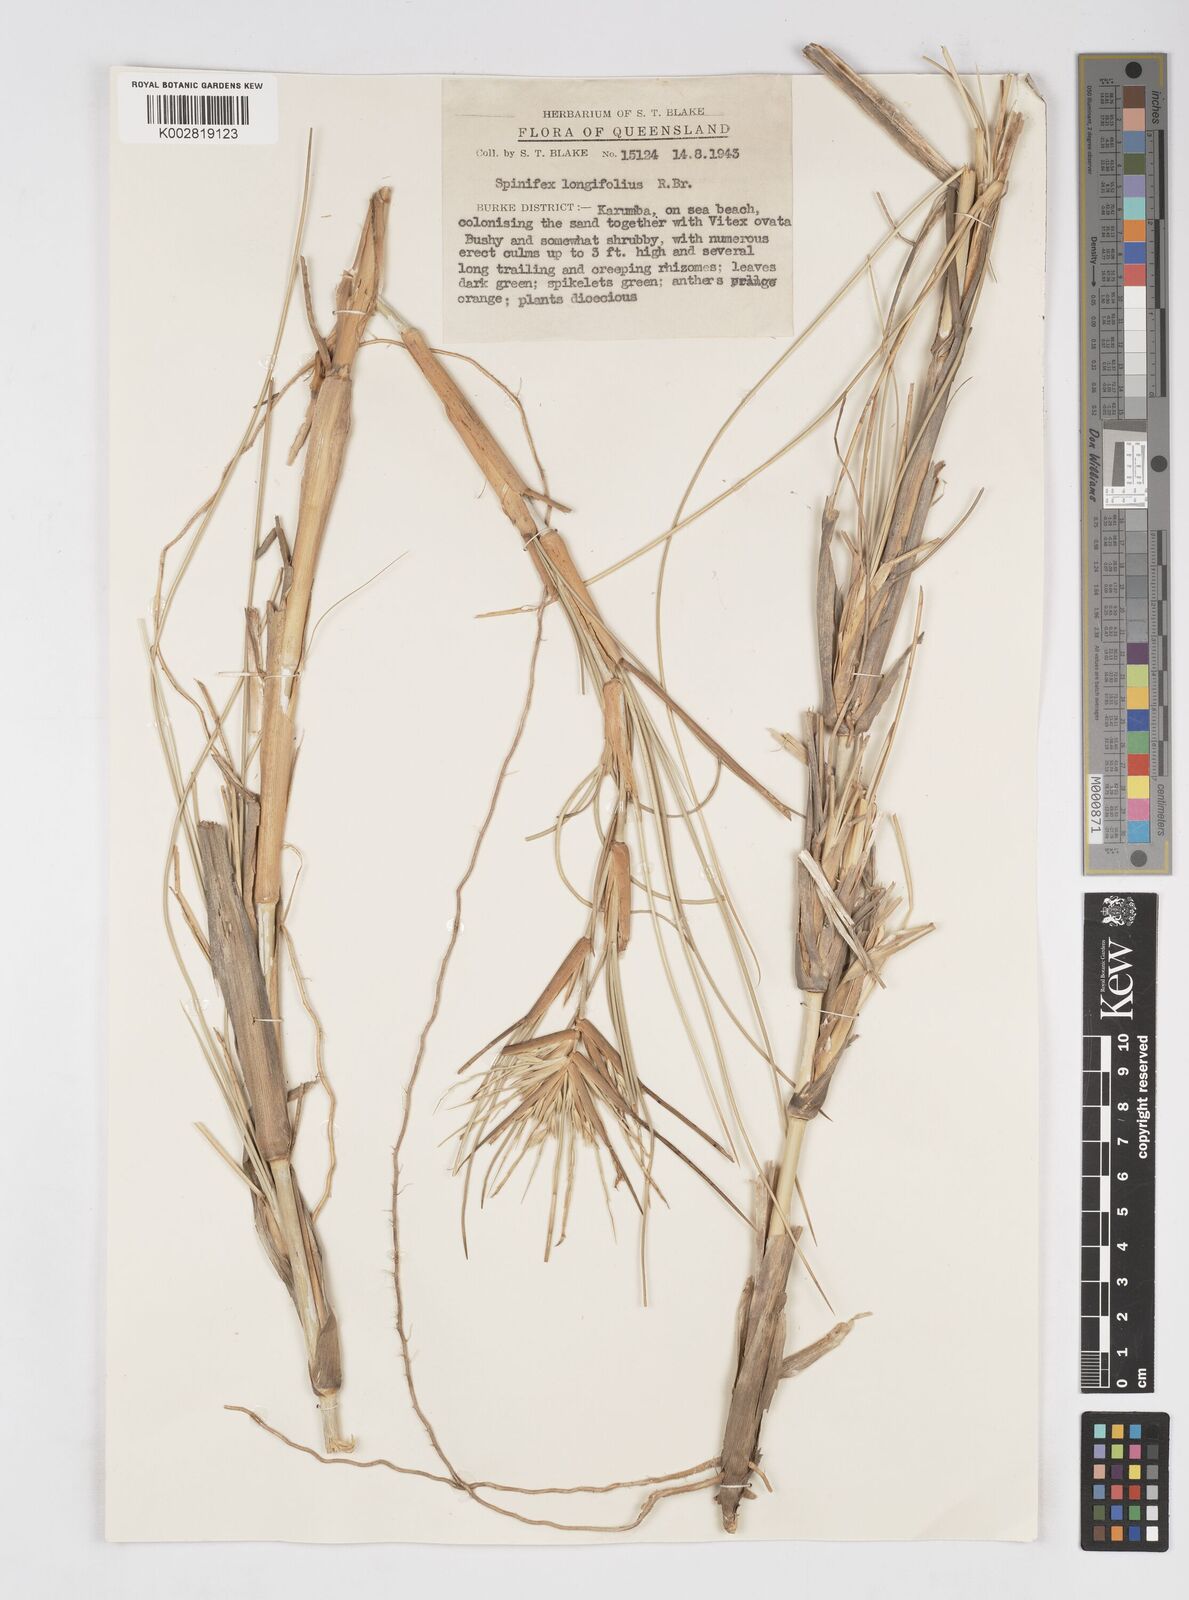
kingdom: Plantae
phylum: Tracheophyta
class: Liliopsida
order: Poales
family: Poaceae
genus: Spinifex
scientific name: Spinifex longifolius
